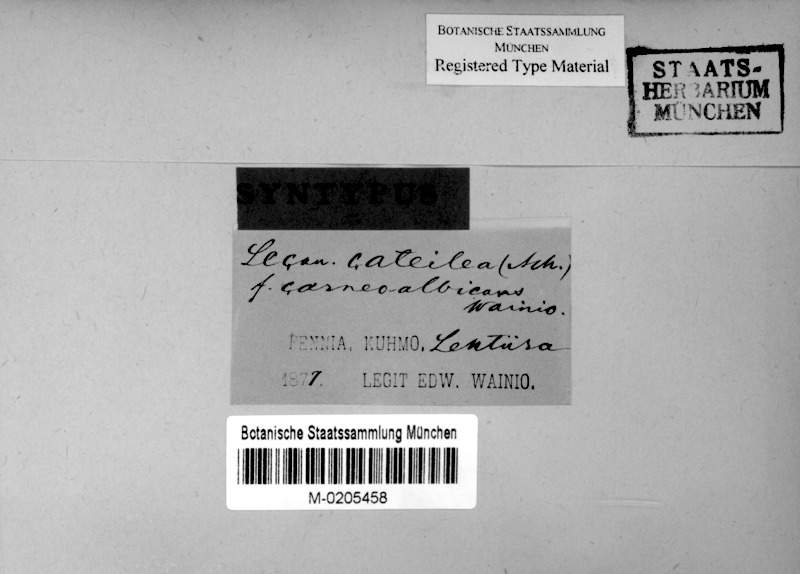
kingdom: Fungi
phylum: Ascomycota
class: Lecanoromycetes
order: Lecanorales
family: Lecanoraceae
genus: Lecanora
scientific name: Lecanora cateilea
